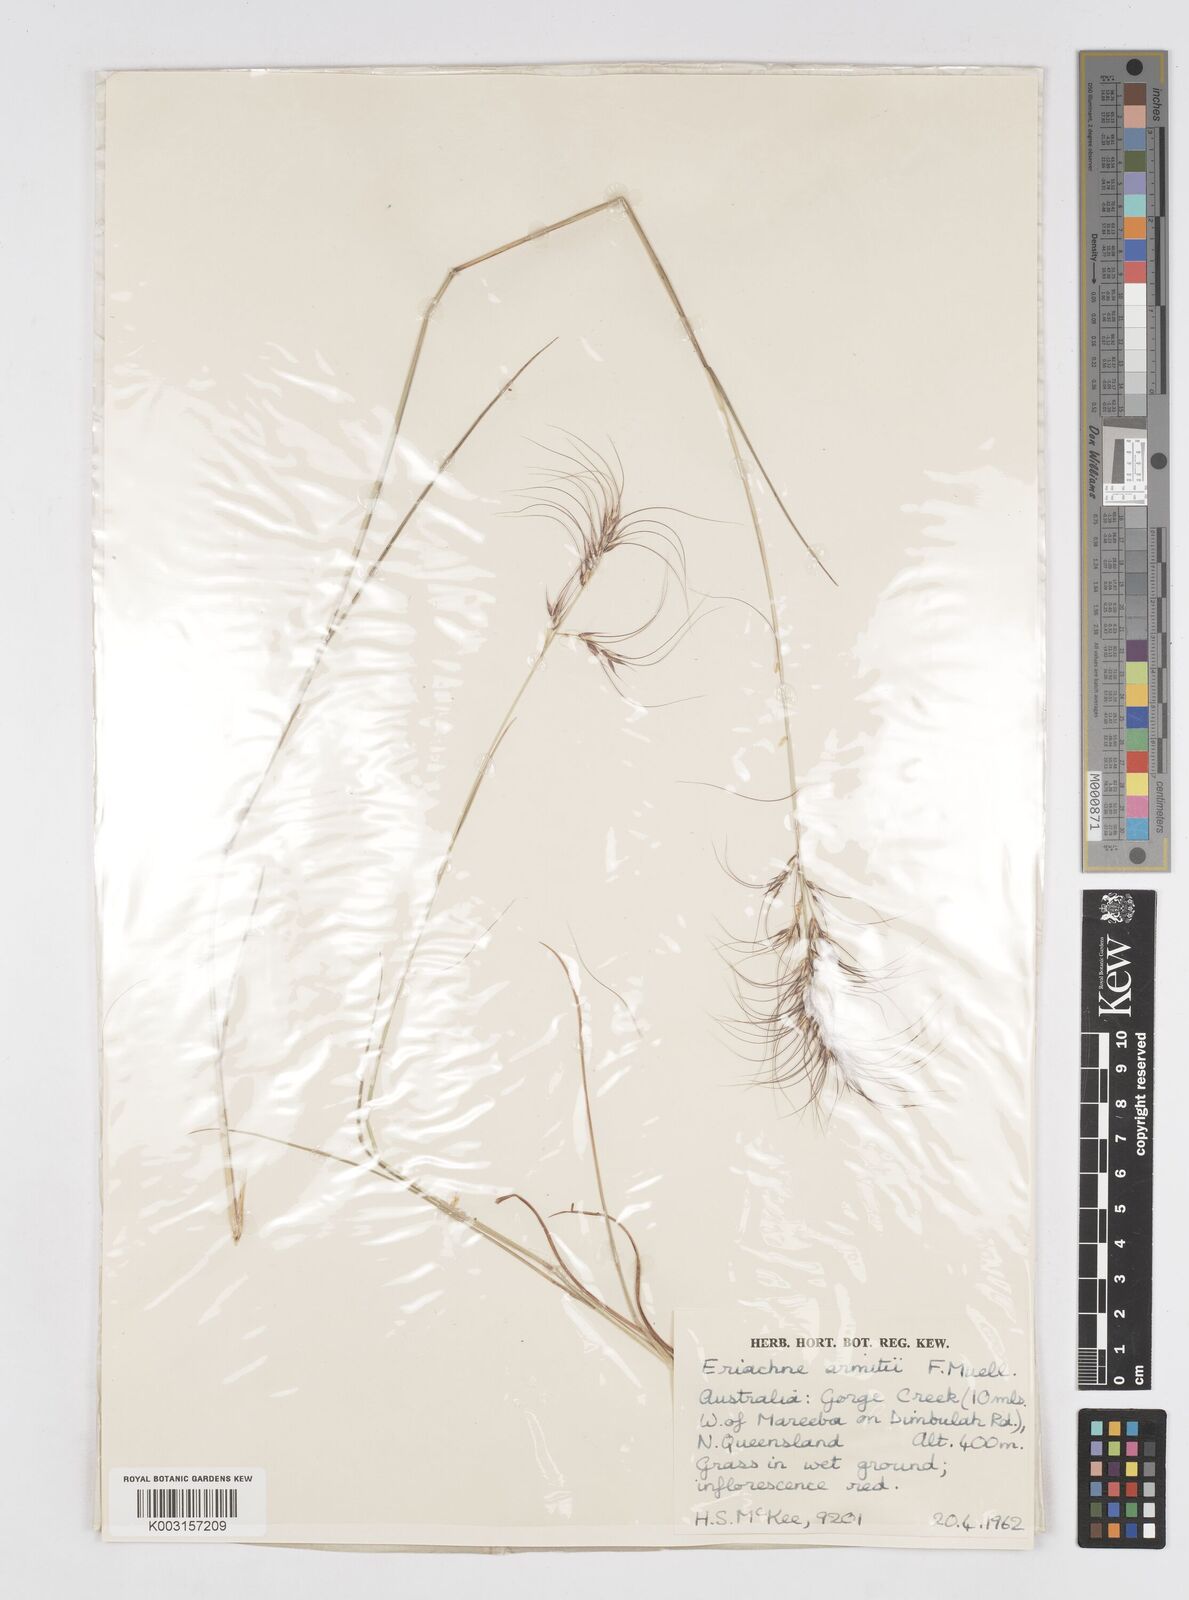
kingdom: Plantae
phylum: Tracheophyta
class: Liliopsida
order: Poales
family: Poaceae
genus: Eriachne
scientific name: Eriachne armitii
